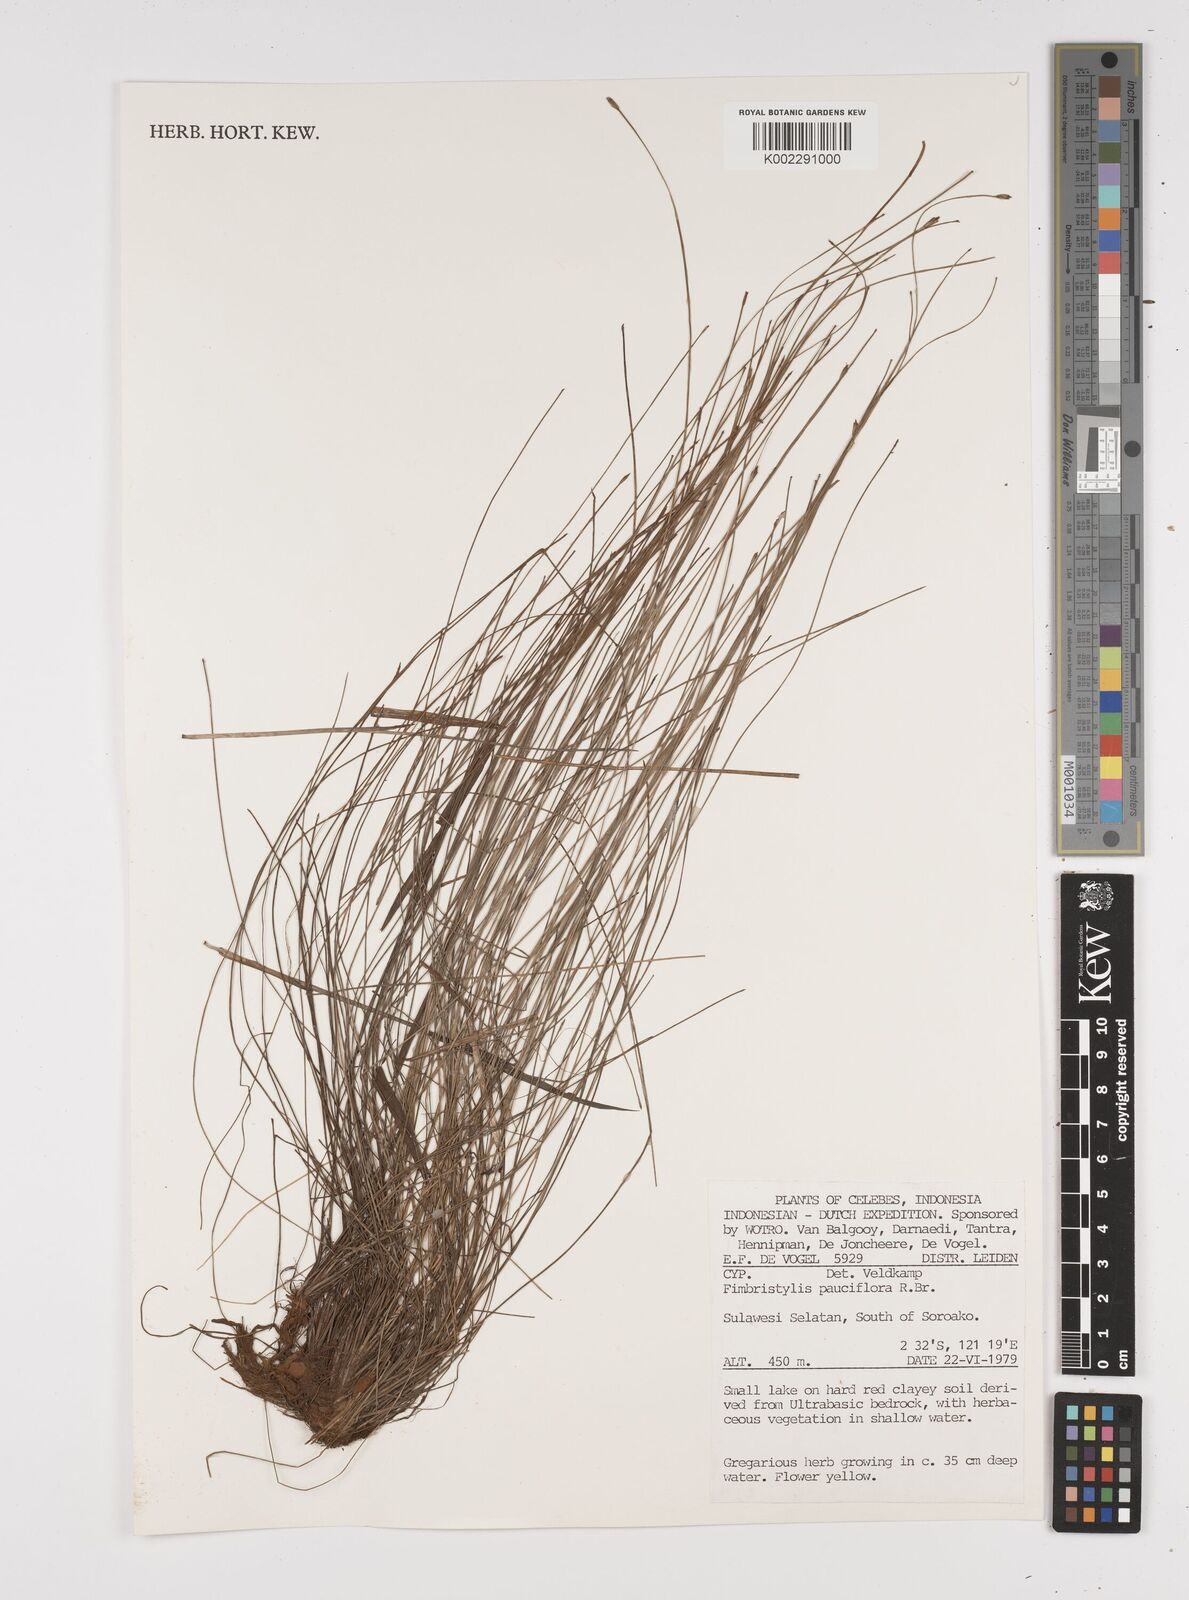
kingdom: Plantae
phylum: Tracheophyta
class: Liliopsida
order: Poales
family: Cyperaceae
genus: Fimbristylis
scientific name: Fimbristylis pauciflora
